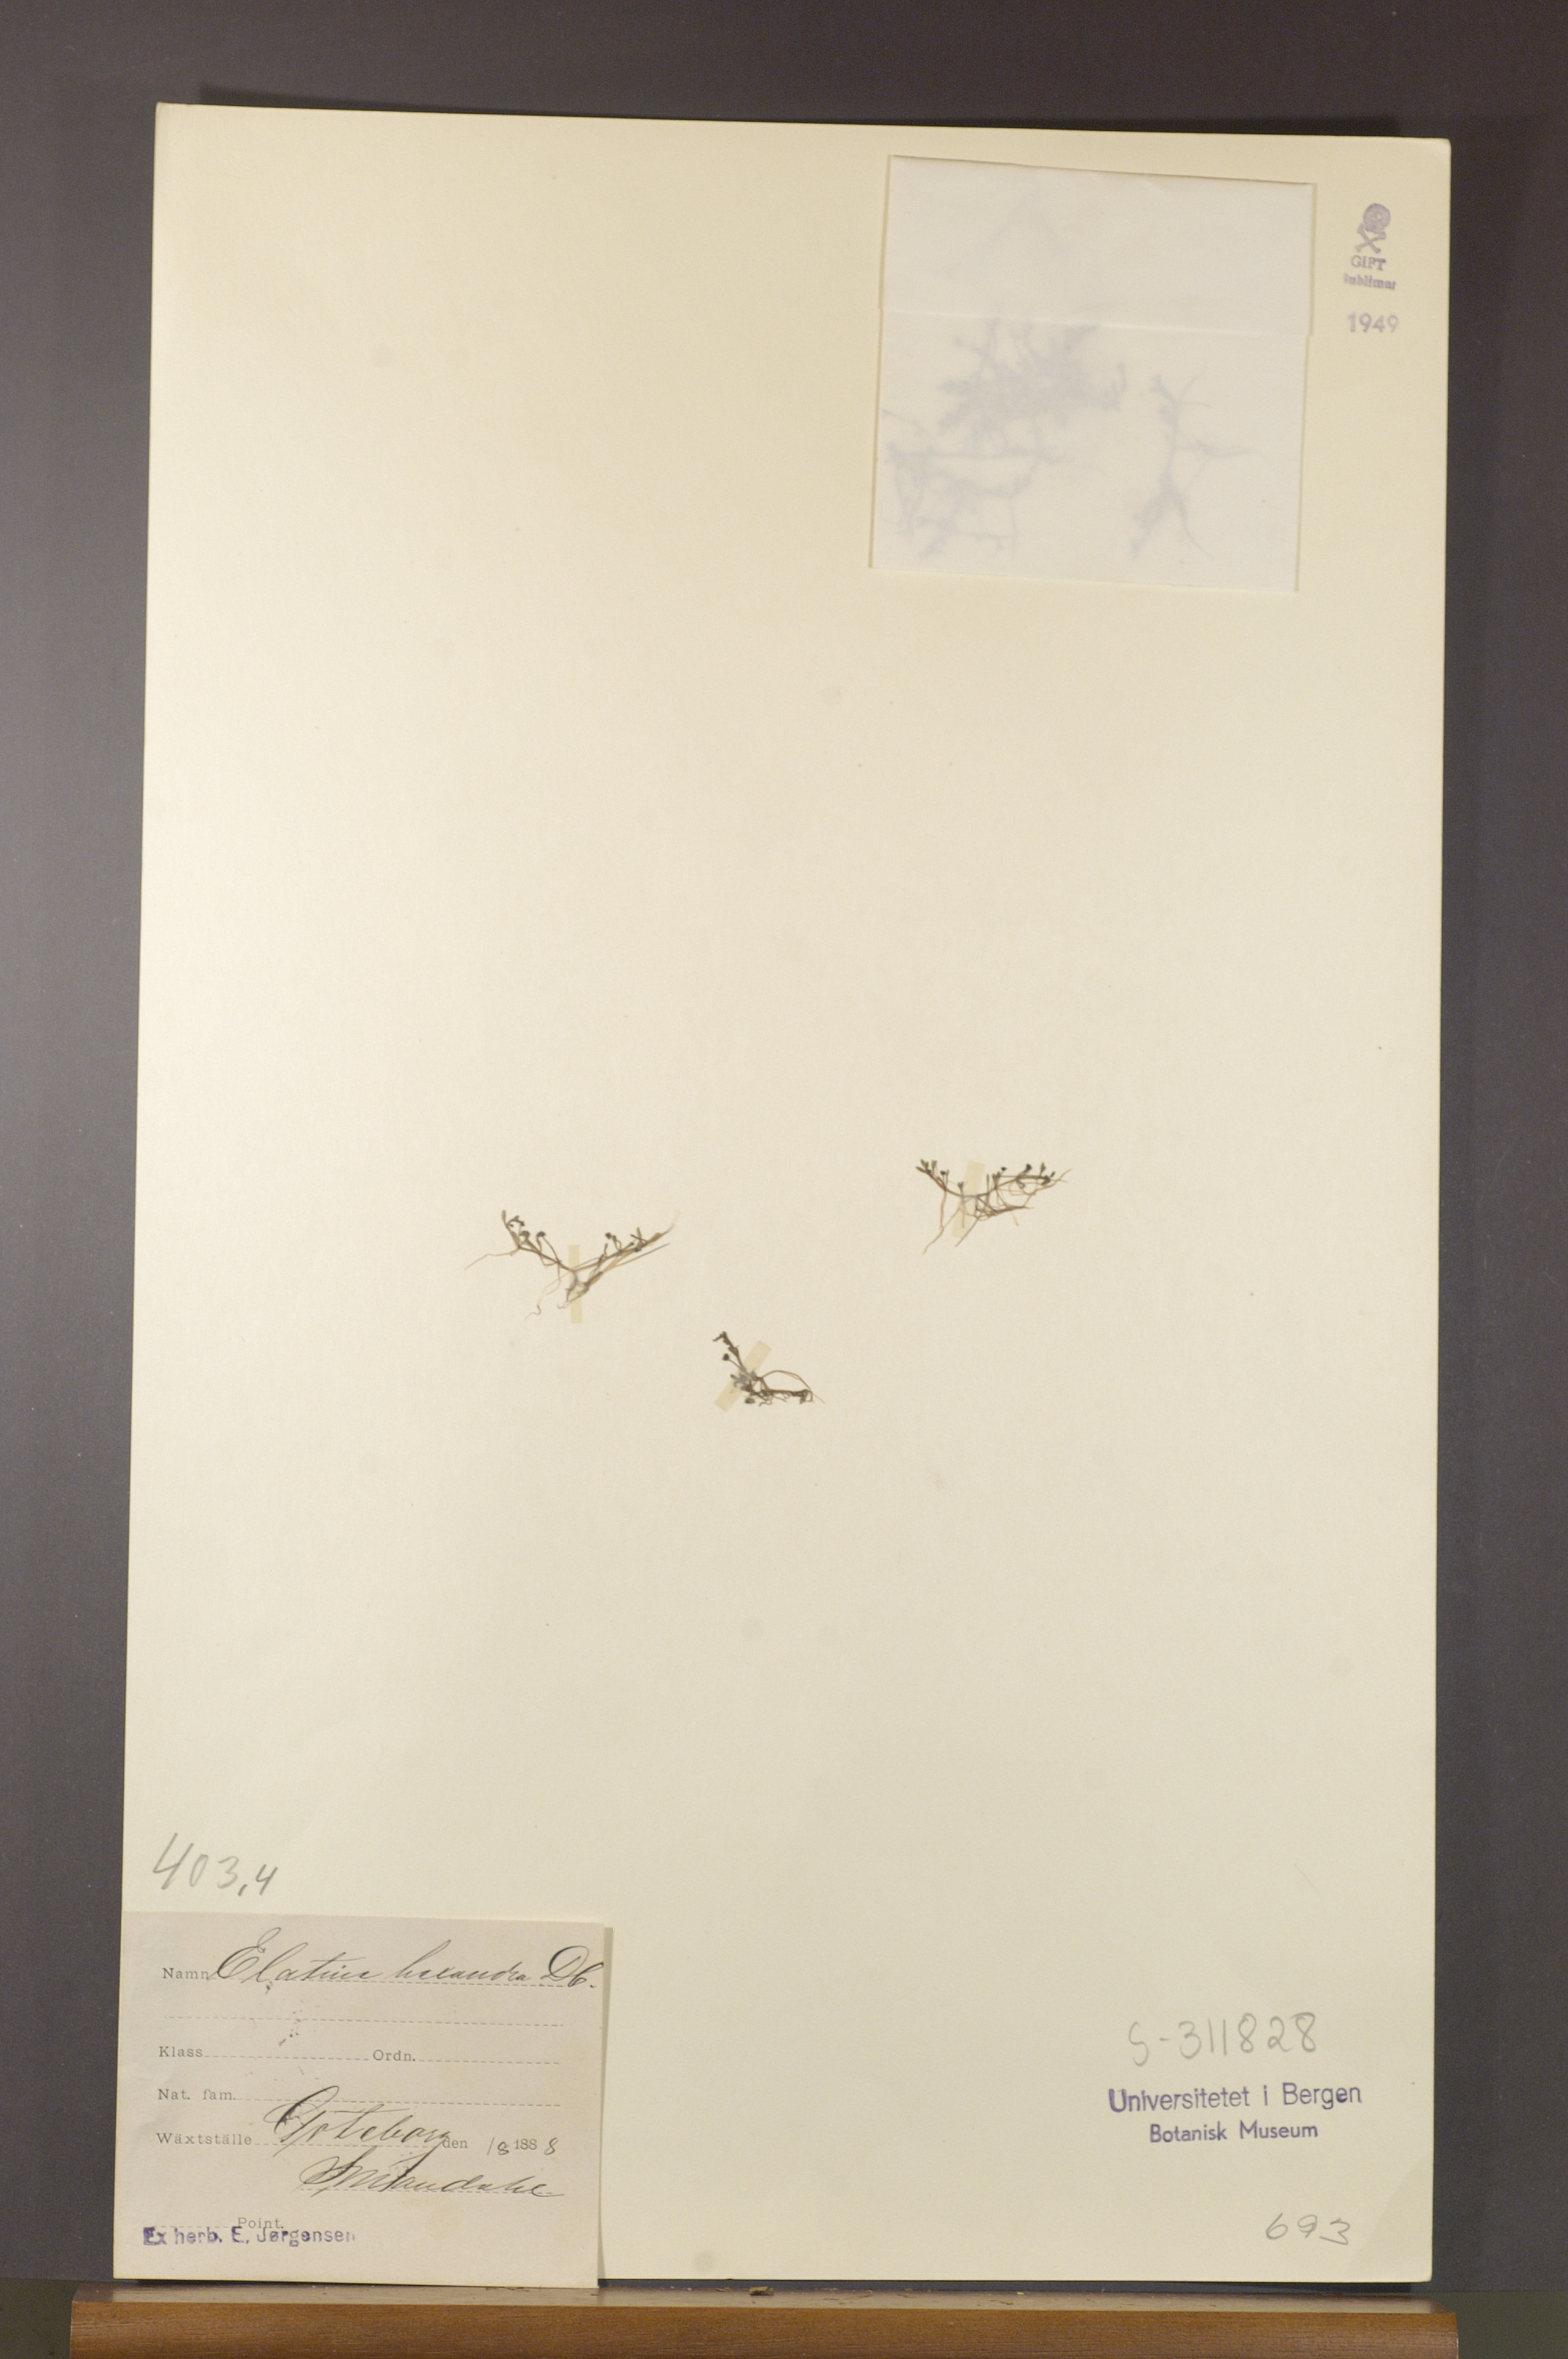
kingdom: Plantae
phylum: Tracheophyta
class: Magnoliopsida
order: Malpighiales
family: Elatinaceae
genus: Elatine
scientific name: Elatine hexandra
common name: Six-stamened waterwort
